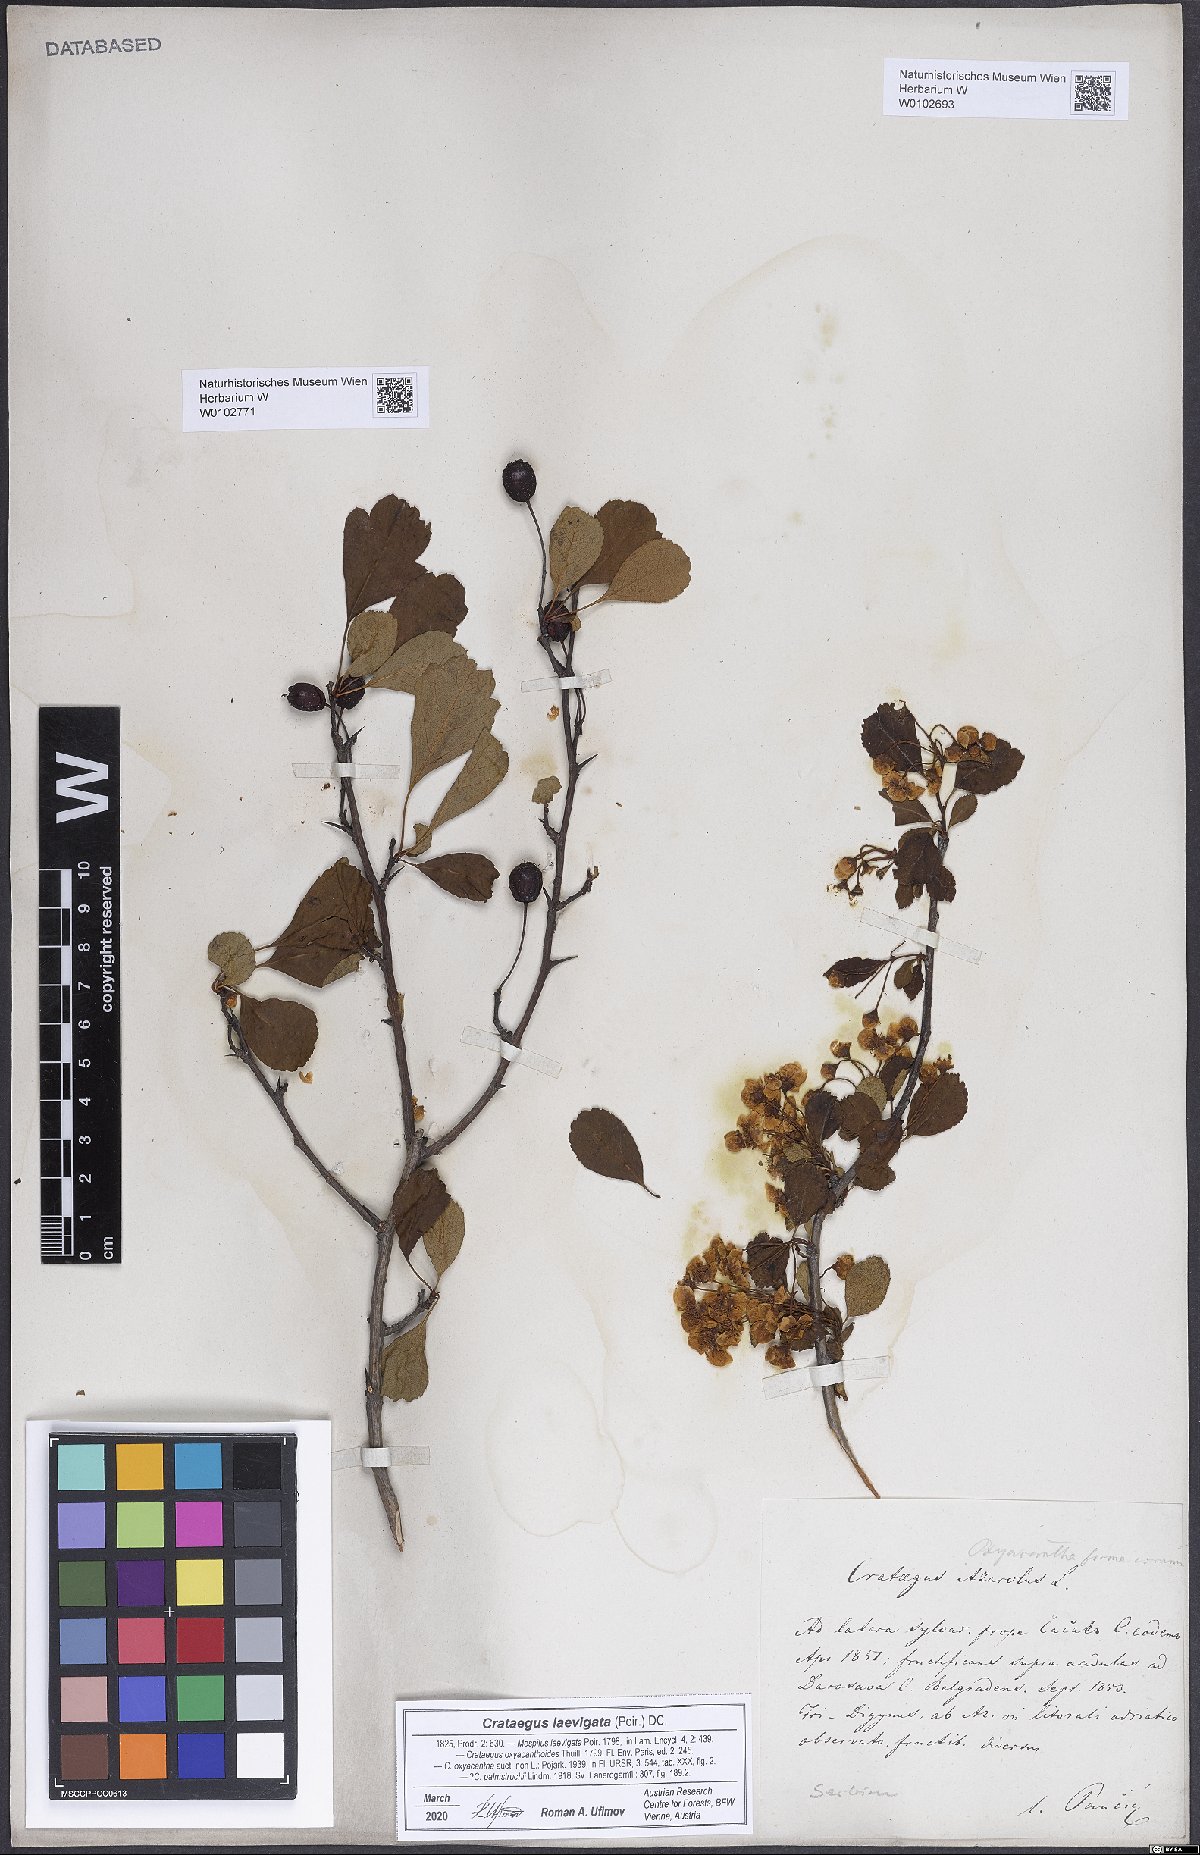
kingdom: Plantae
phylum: Tracheophyta
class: Magnoliopsida
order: Rosales
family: Rosaceae
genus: Crataegus
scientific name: Crataegus laevigata
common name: Midland hawthorn
